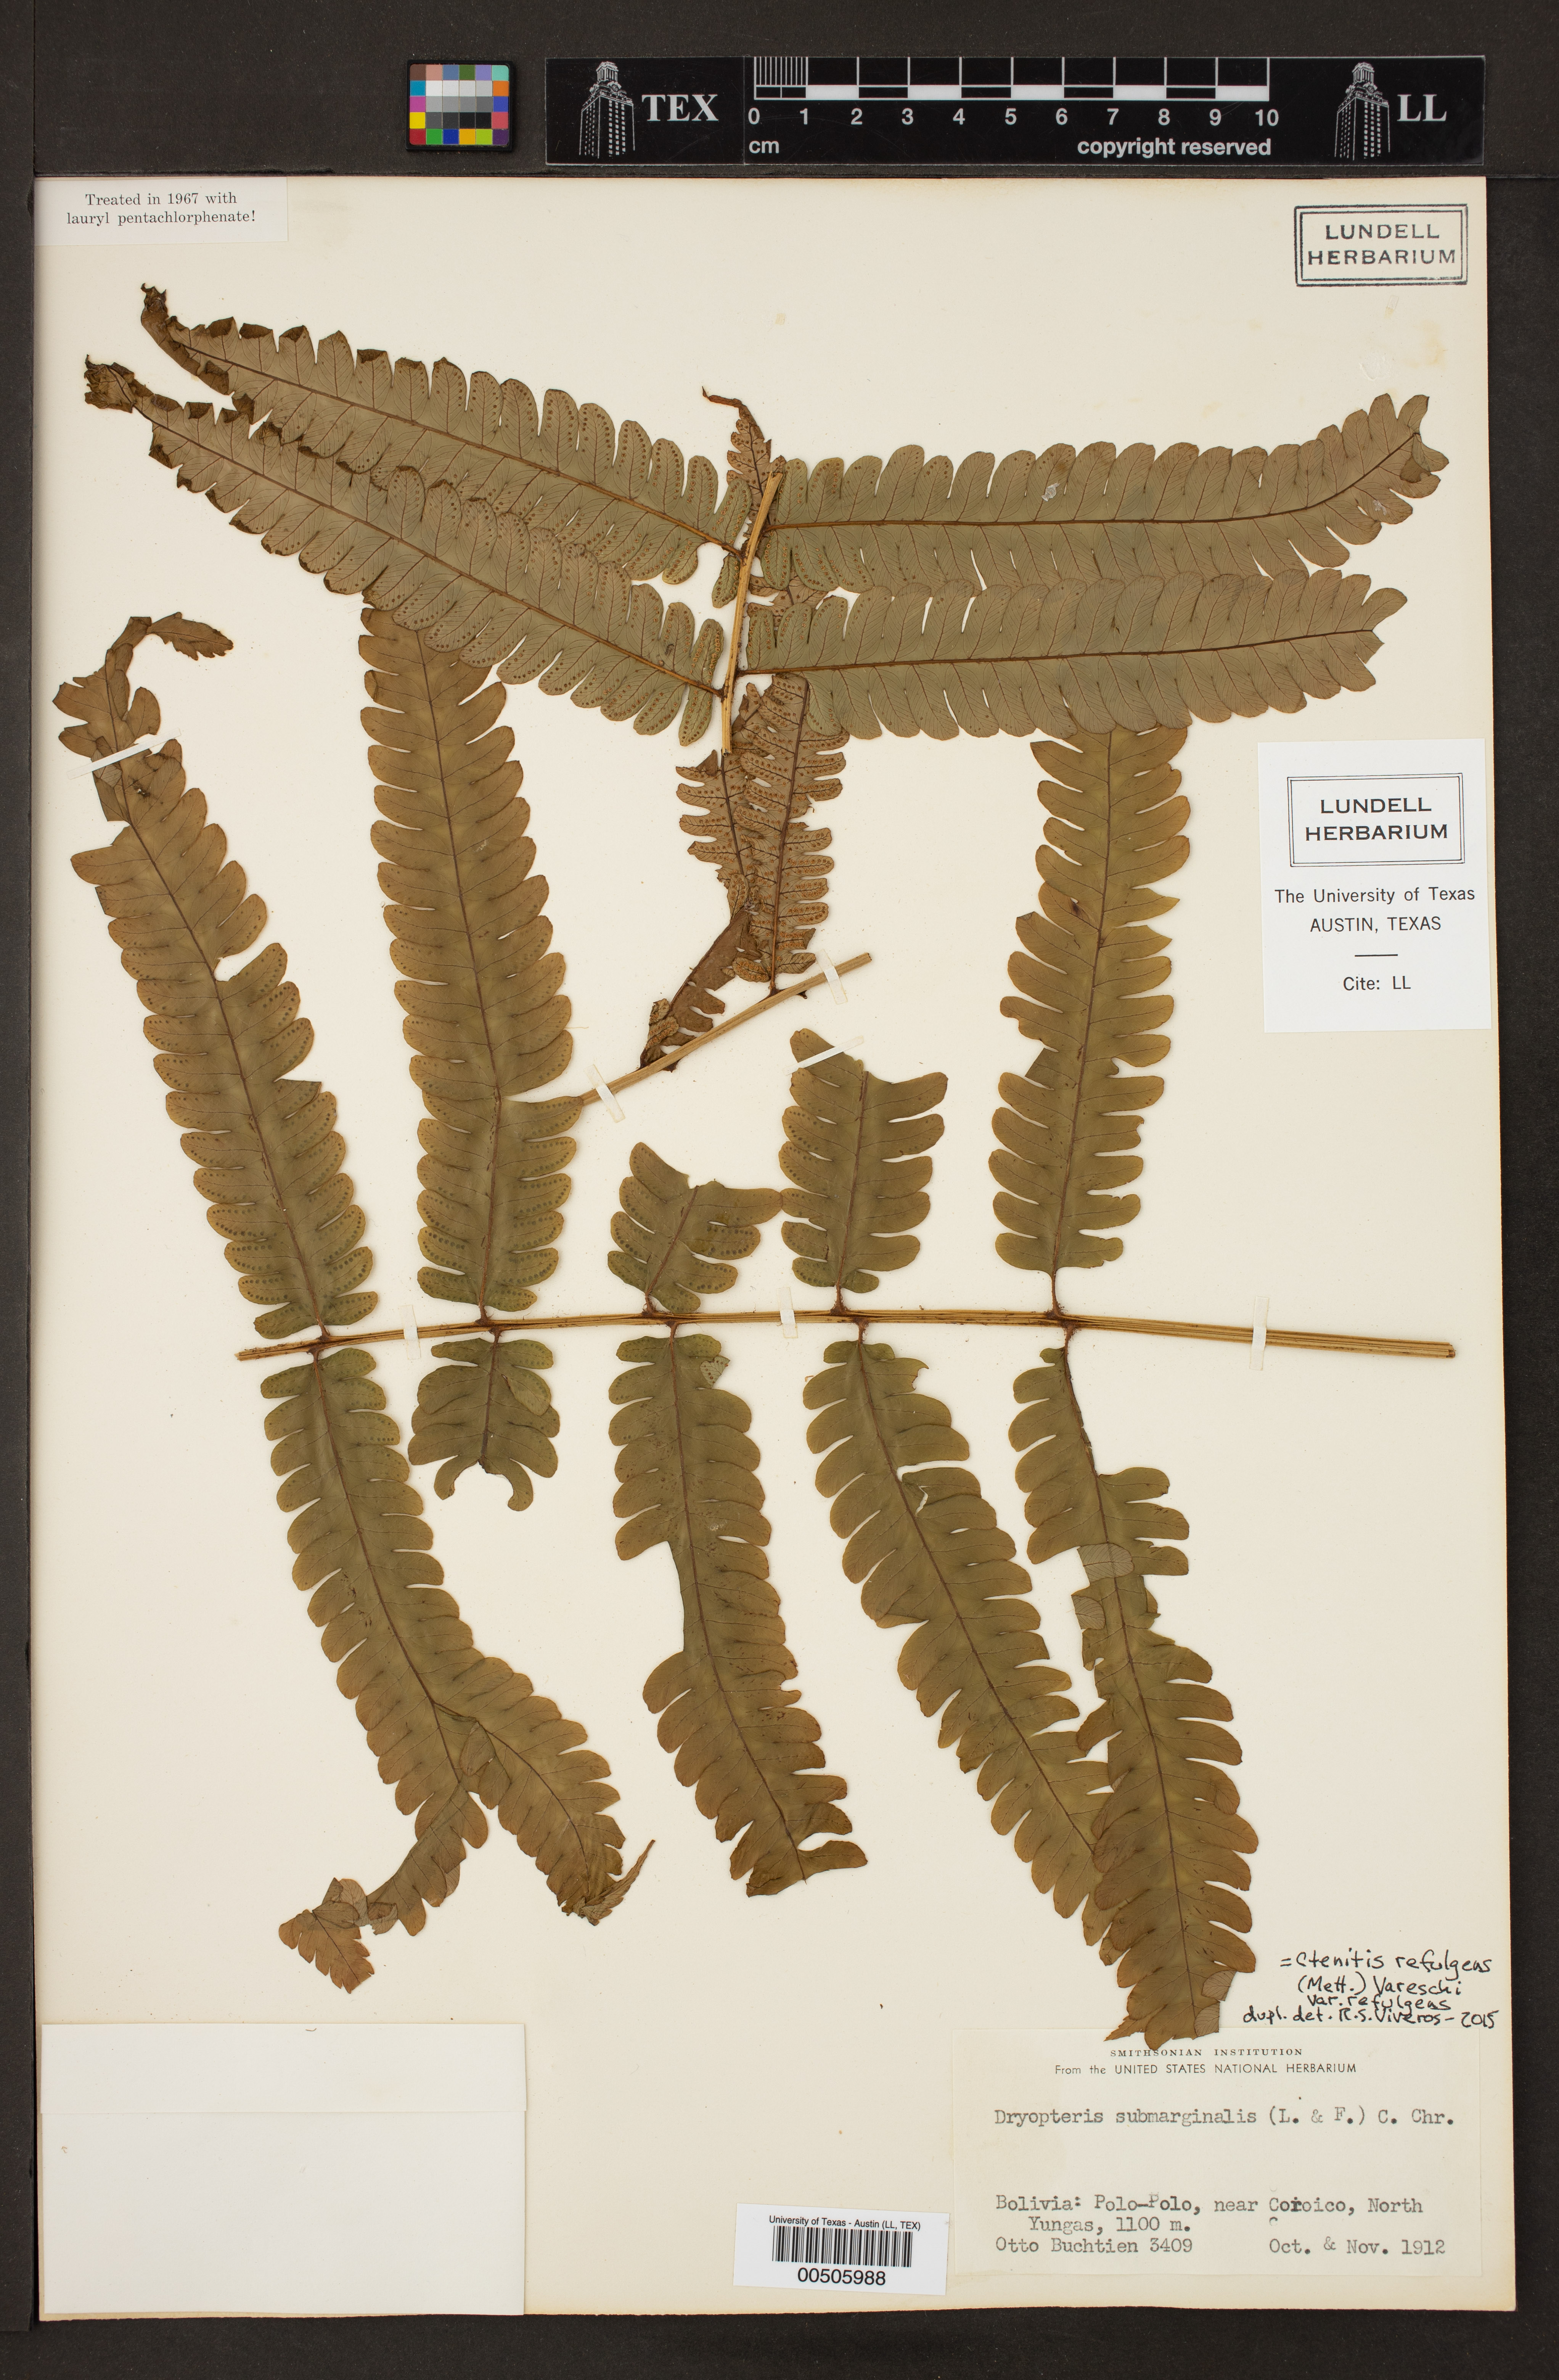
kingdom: Plantae
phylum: Tracheophyta
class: Polypodiopsida
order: Polypodiales
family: Dryopteridaceae
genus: Ctenitis
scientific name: Ctenitis refulgens
